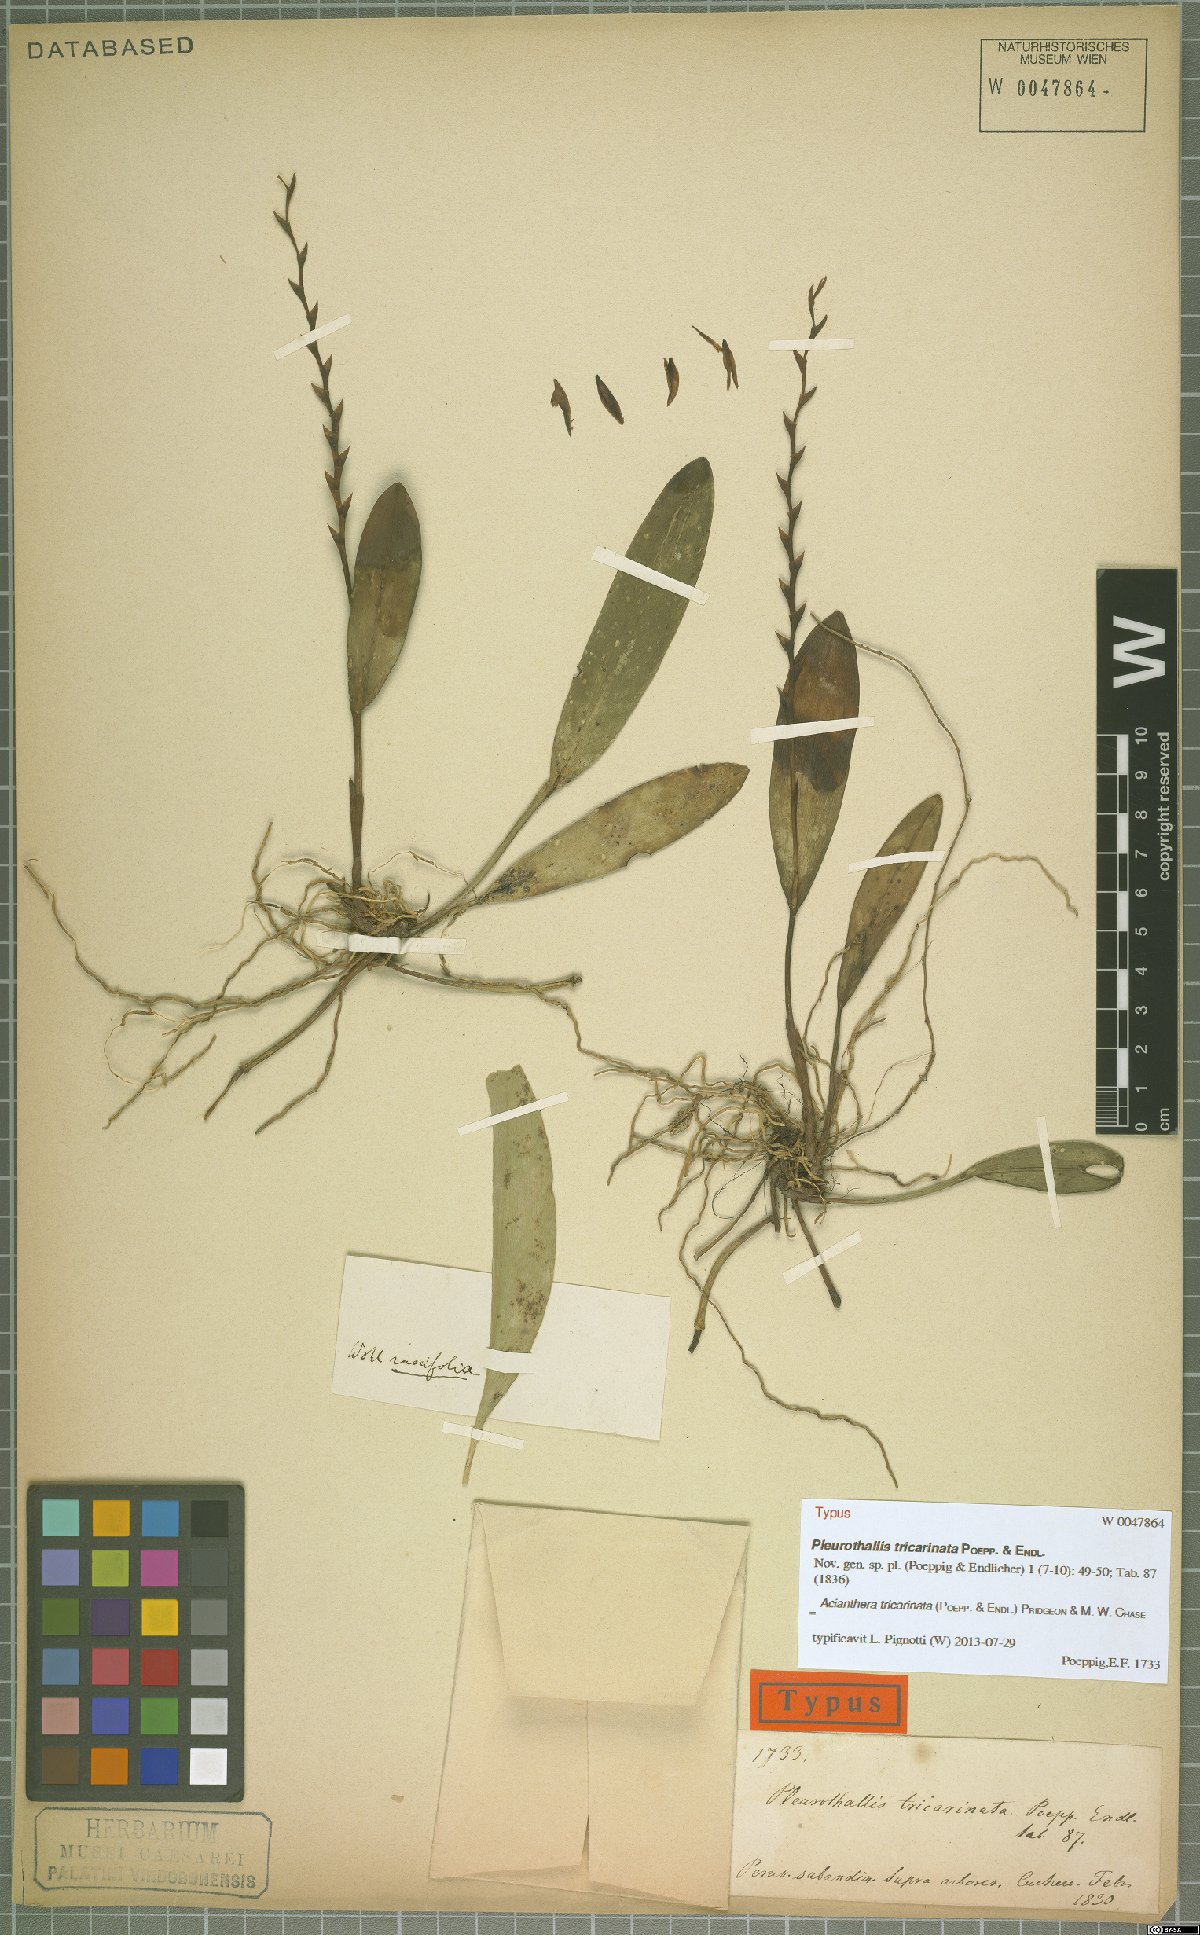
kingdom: Plantae
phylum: Tracheophyta
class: Liliopsida
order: Asparagales
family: Orchidaceae
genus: Acianthera
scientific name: Acianthera tricarinata
